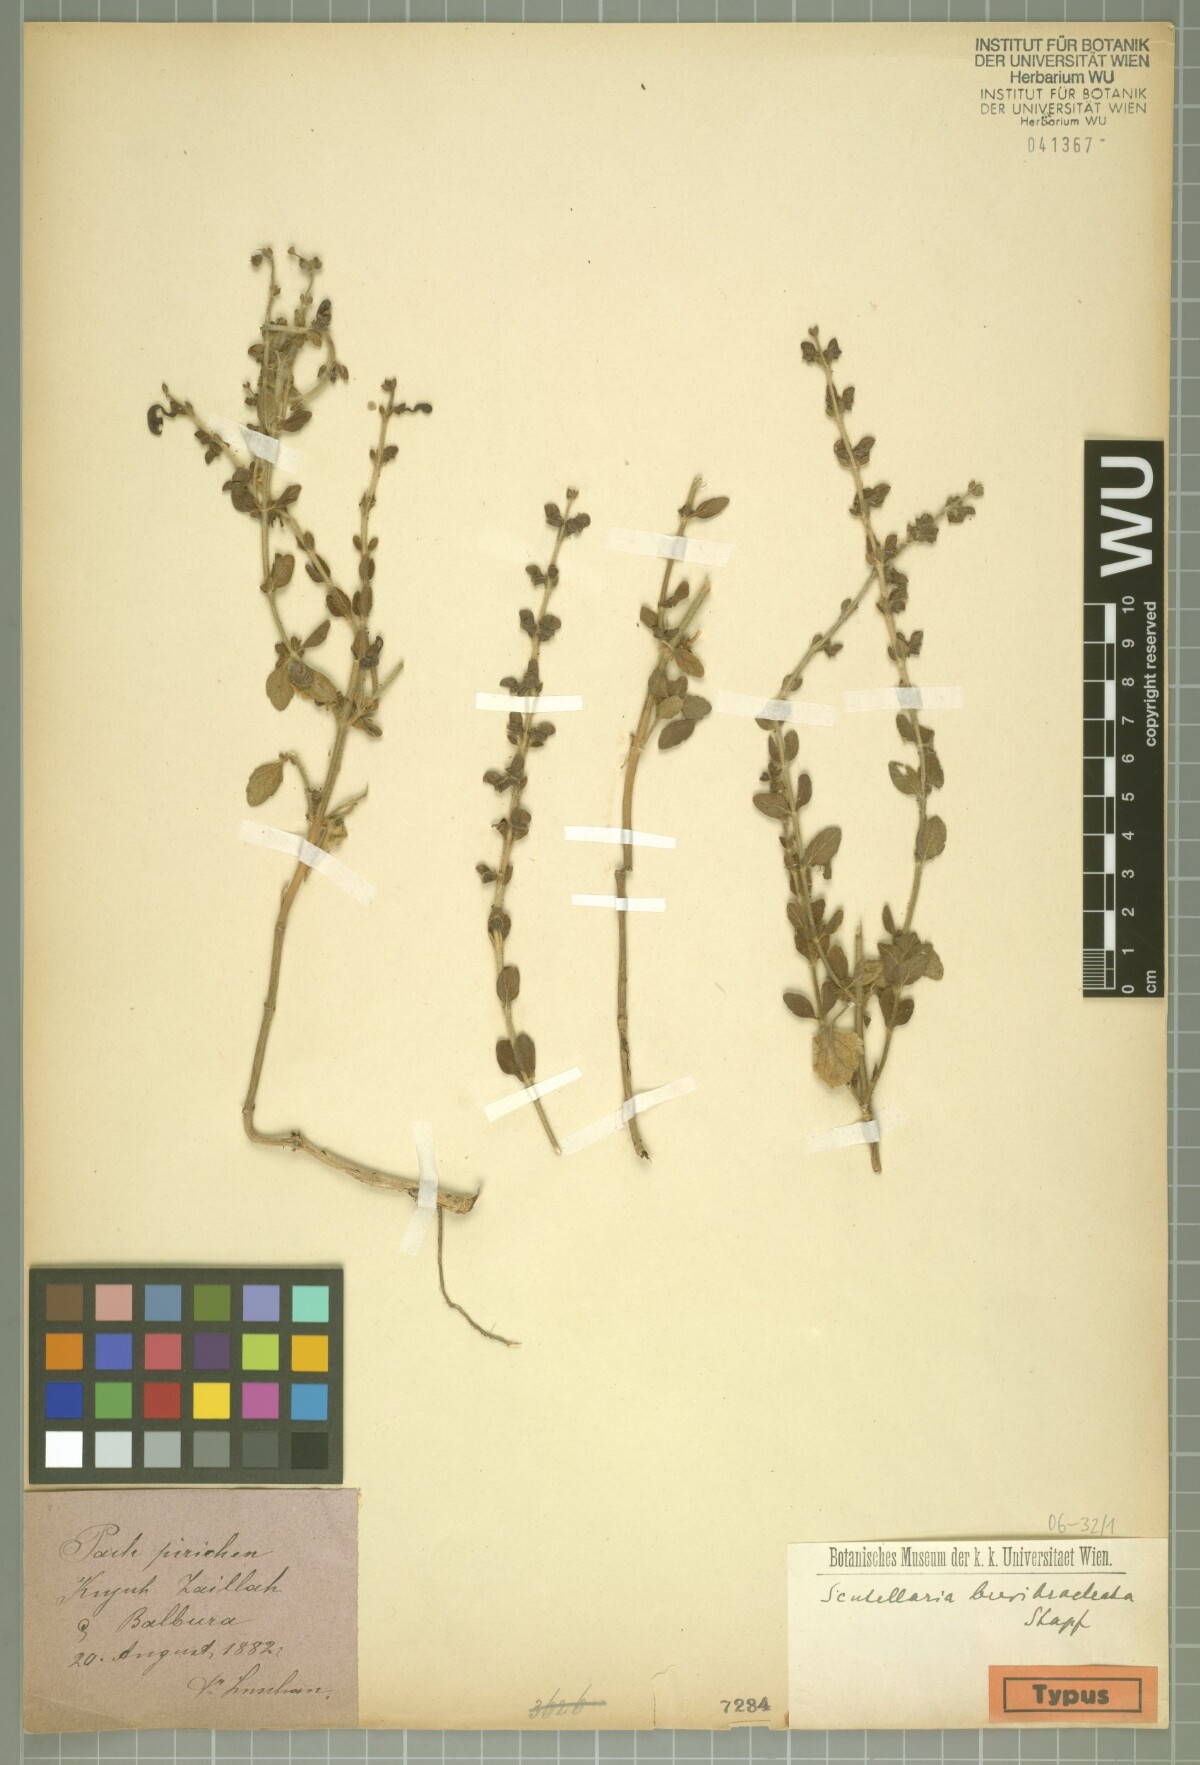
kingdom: Plantae
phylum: Tracheophyta
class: Magnoliopsida
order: Lamiales
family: Lamiaceae
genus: Scutellaria
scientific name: Scutellaria brevibracteata
